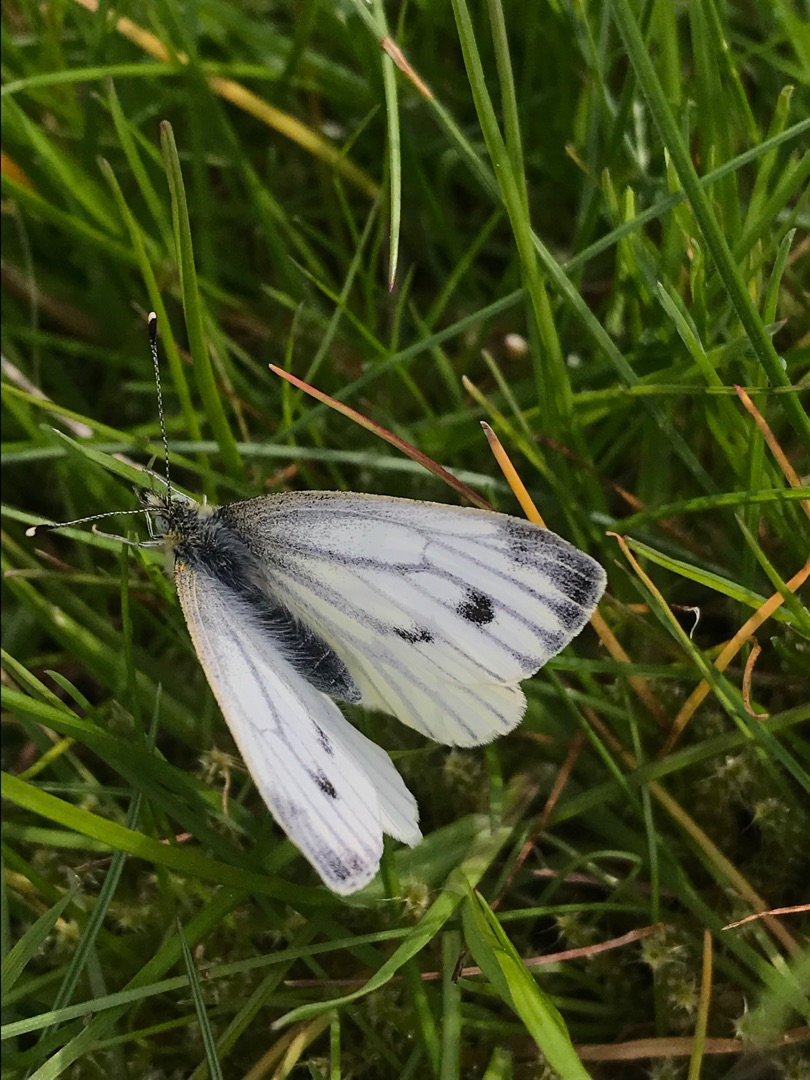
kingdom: Animalia
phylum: Arthropoda
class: Insecta
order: Lepidoptera
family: Pieridae
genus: Pieris
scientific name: Pieris napi
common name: Grønåret kålsommerfugl
